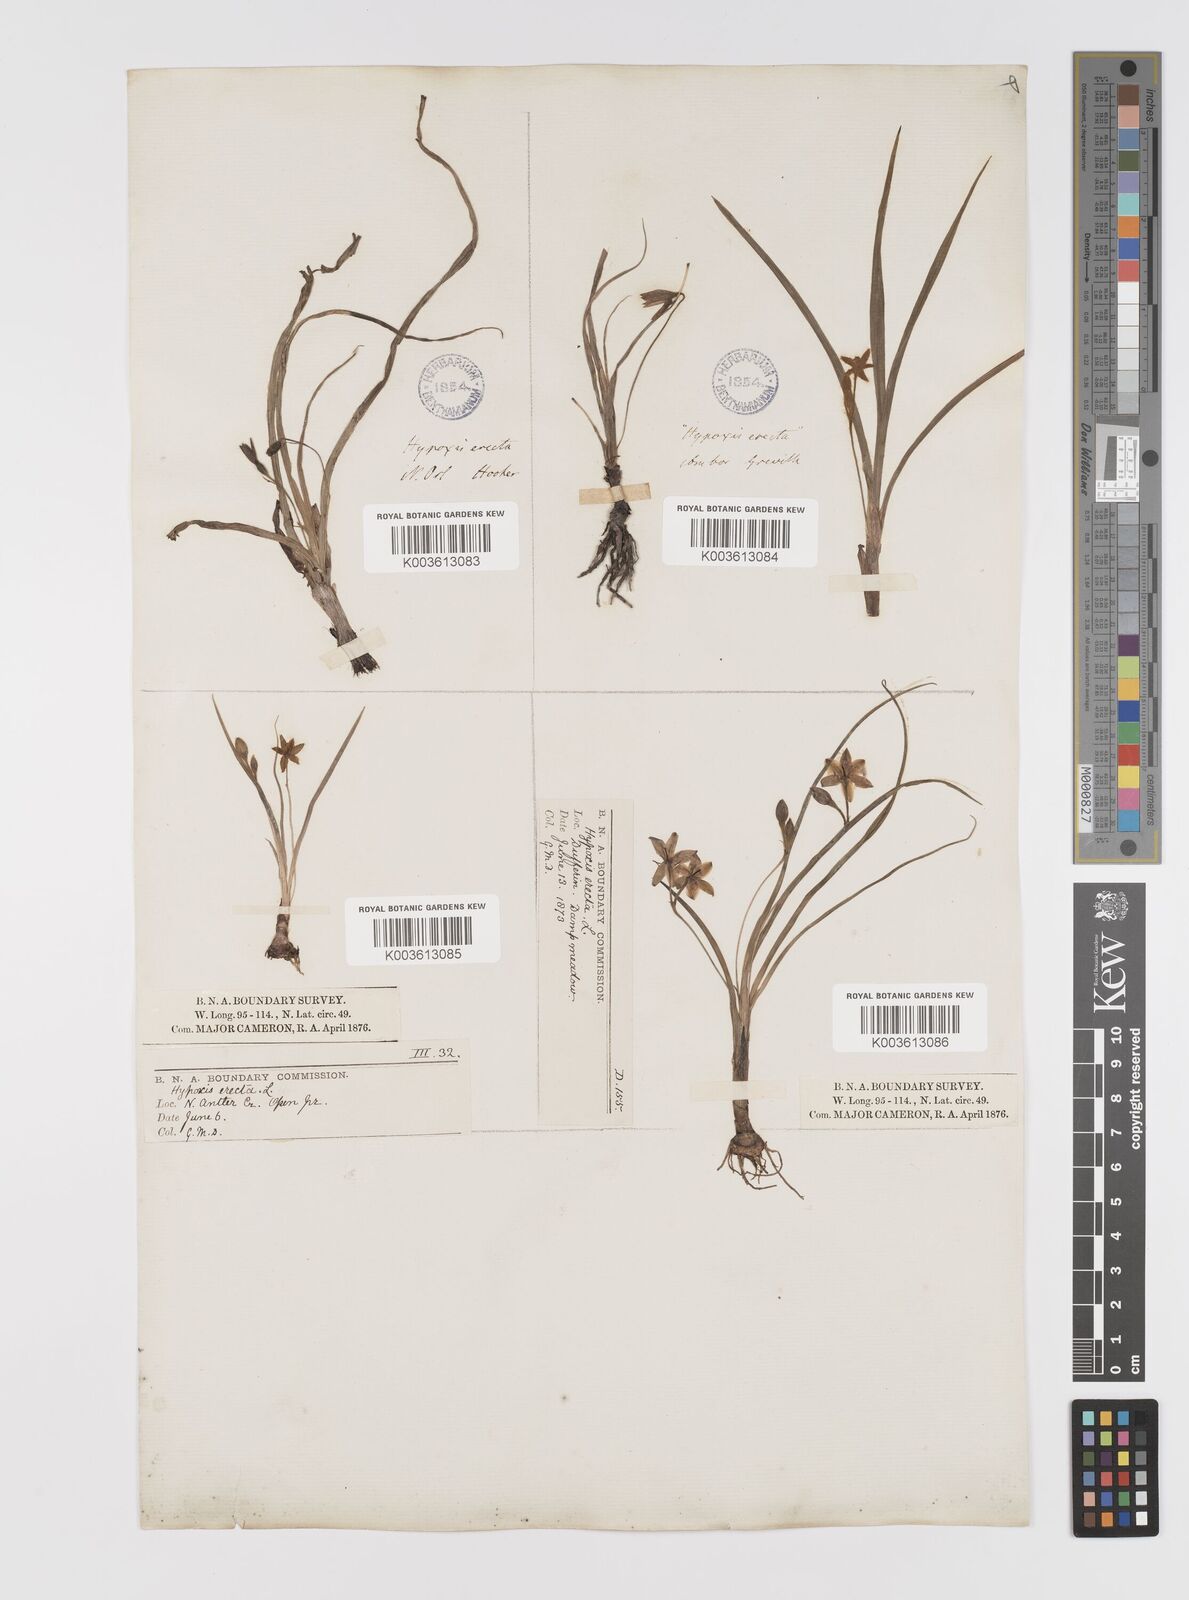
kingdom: Plantae
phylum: Tracheophyta
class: Liliopsida
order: Asparagales
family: Hypoxidaceae
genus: Hypoxis
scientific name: Hypoxis hirsuta
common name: Common goldstar
